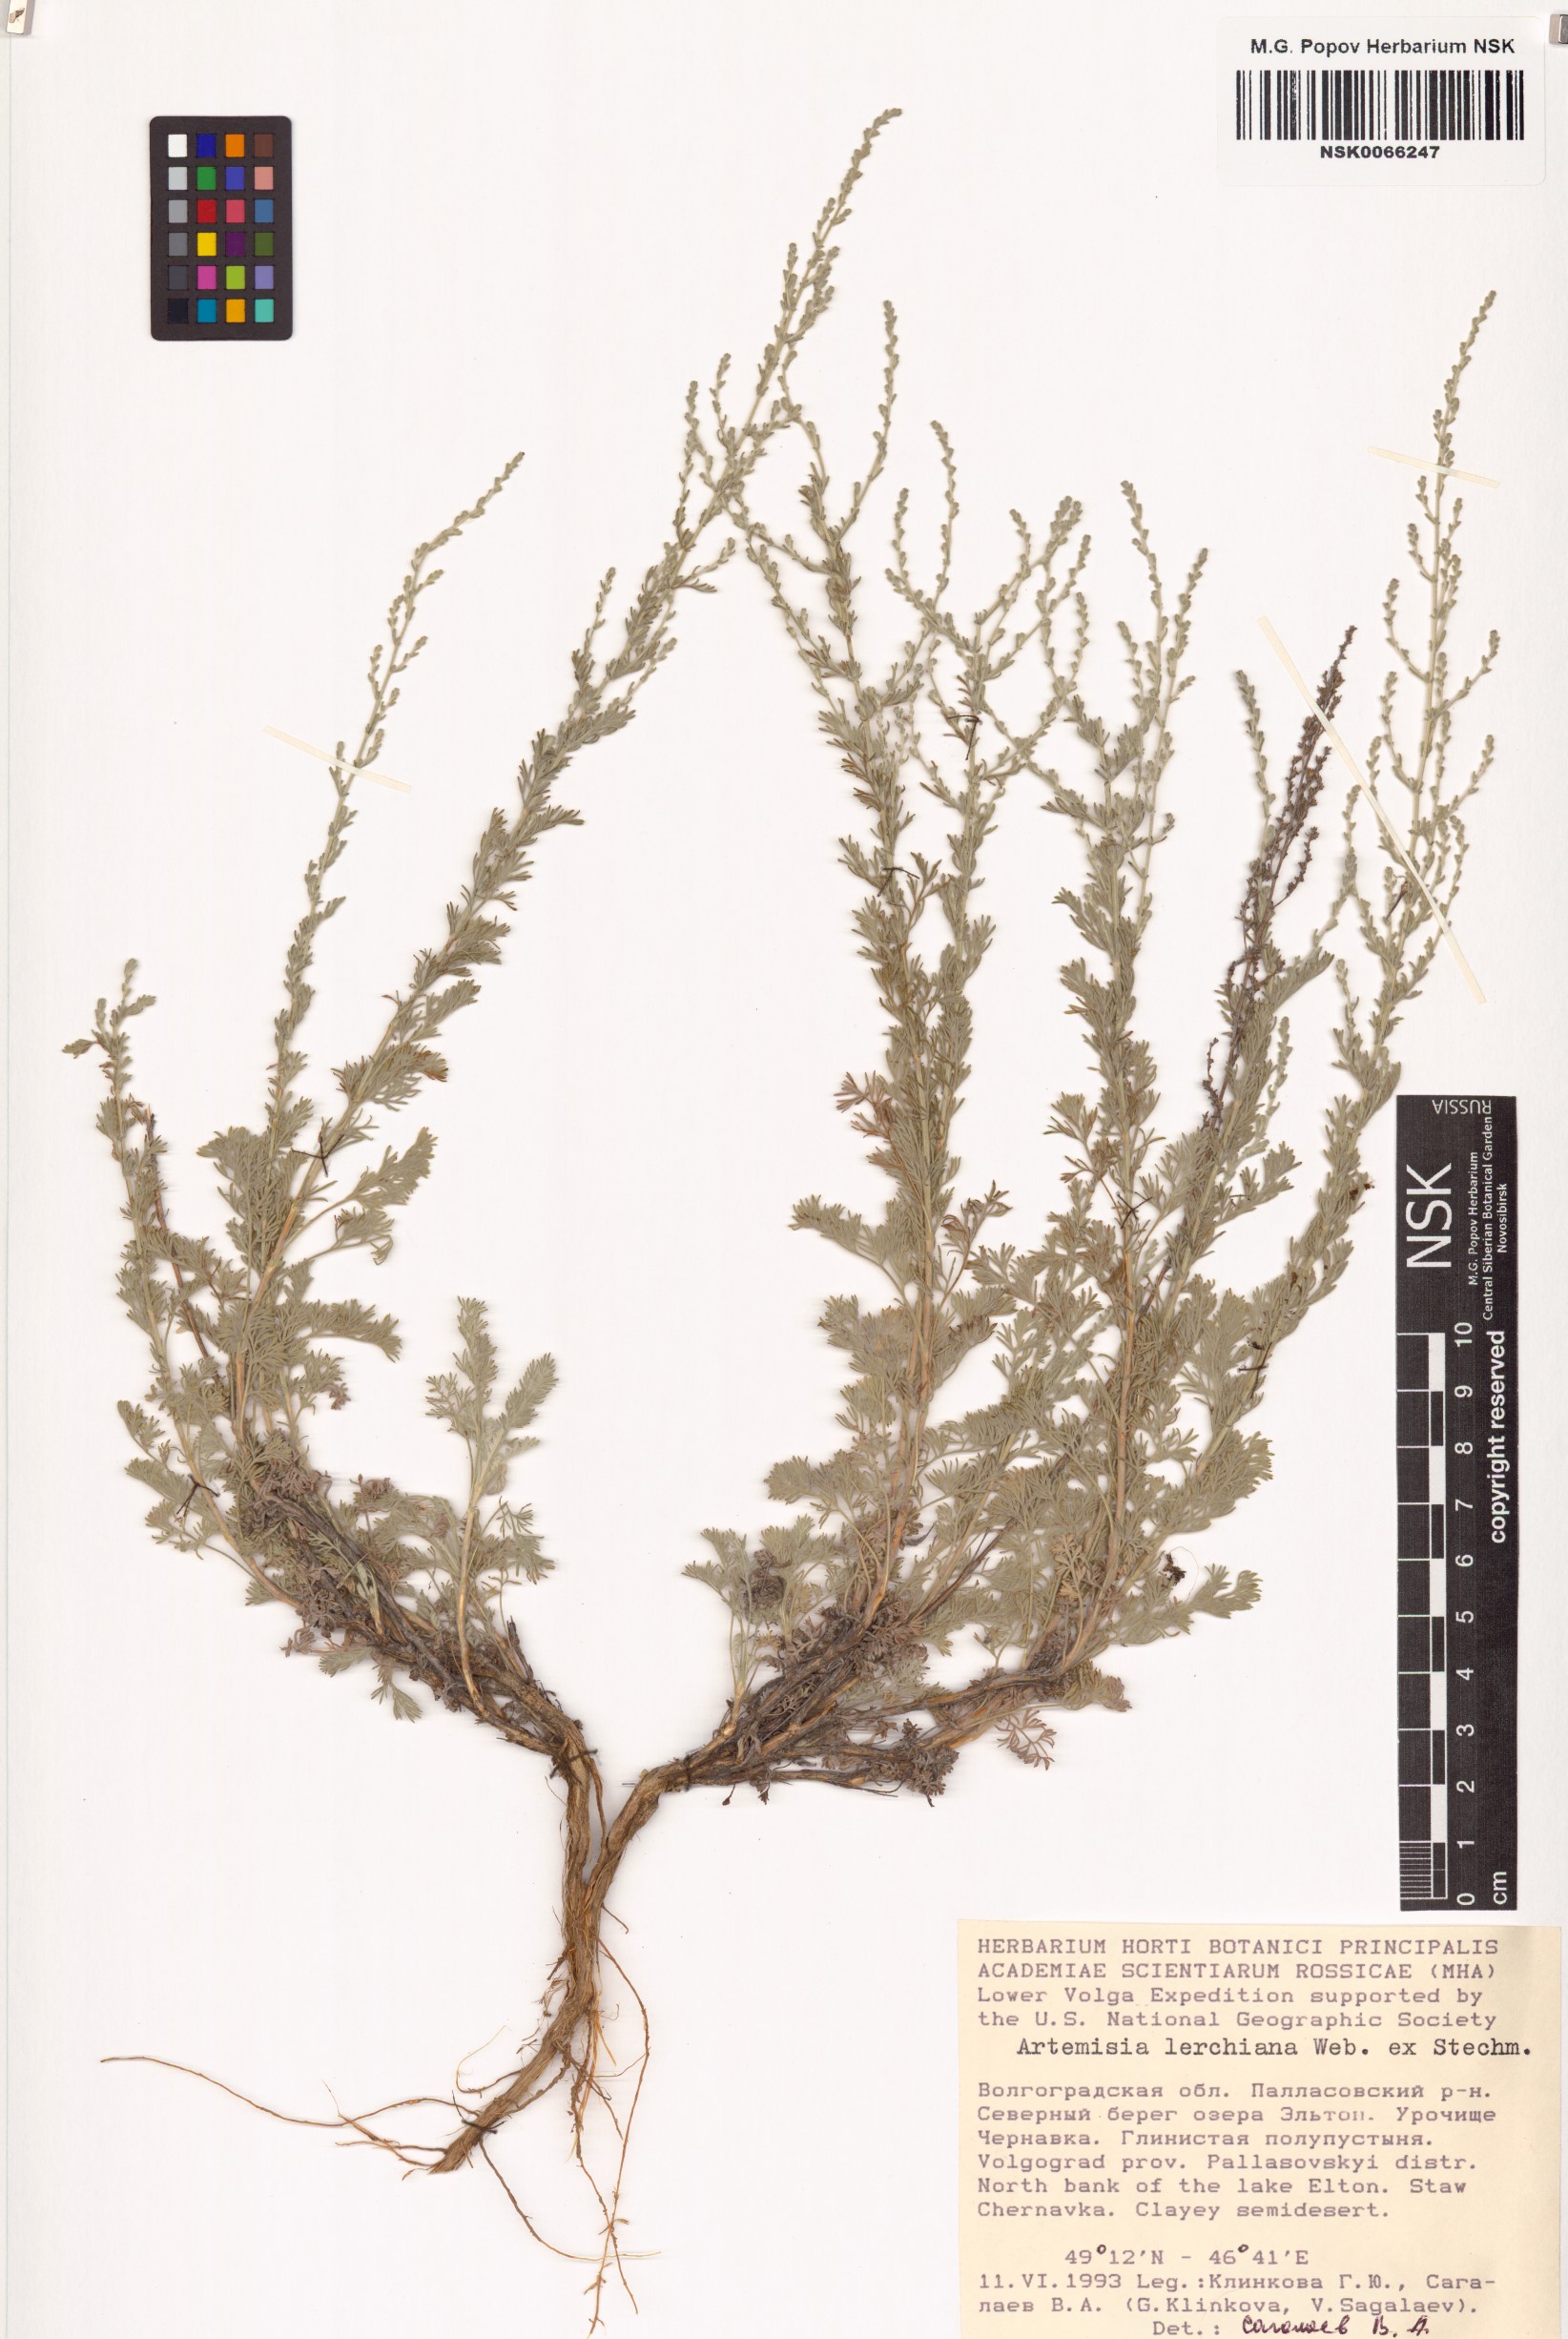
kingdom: Plantae
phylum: Tracheophyta
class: Magnoliopsida
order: Asterales
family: Asteraceae
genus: Artemisia
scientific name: Artemisia lercheana
